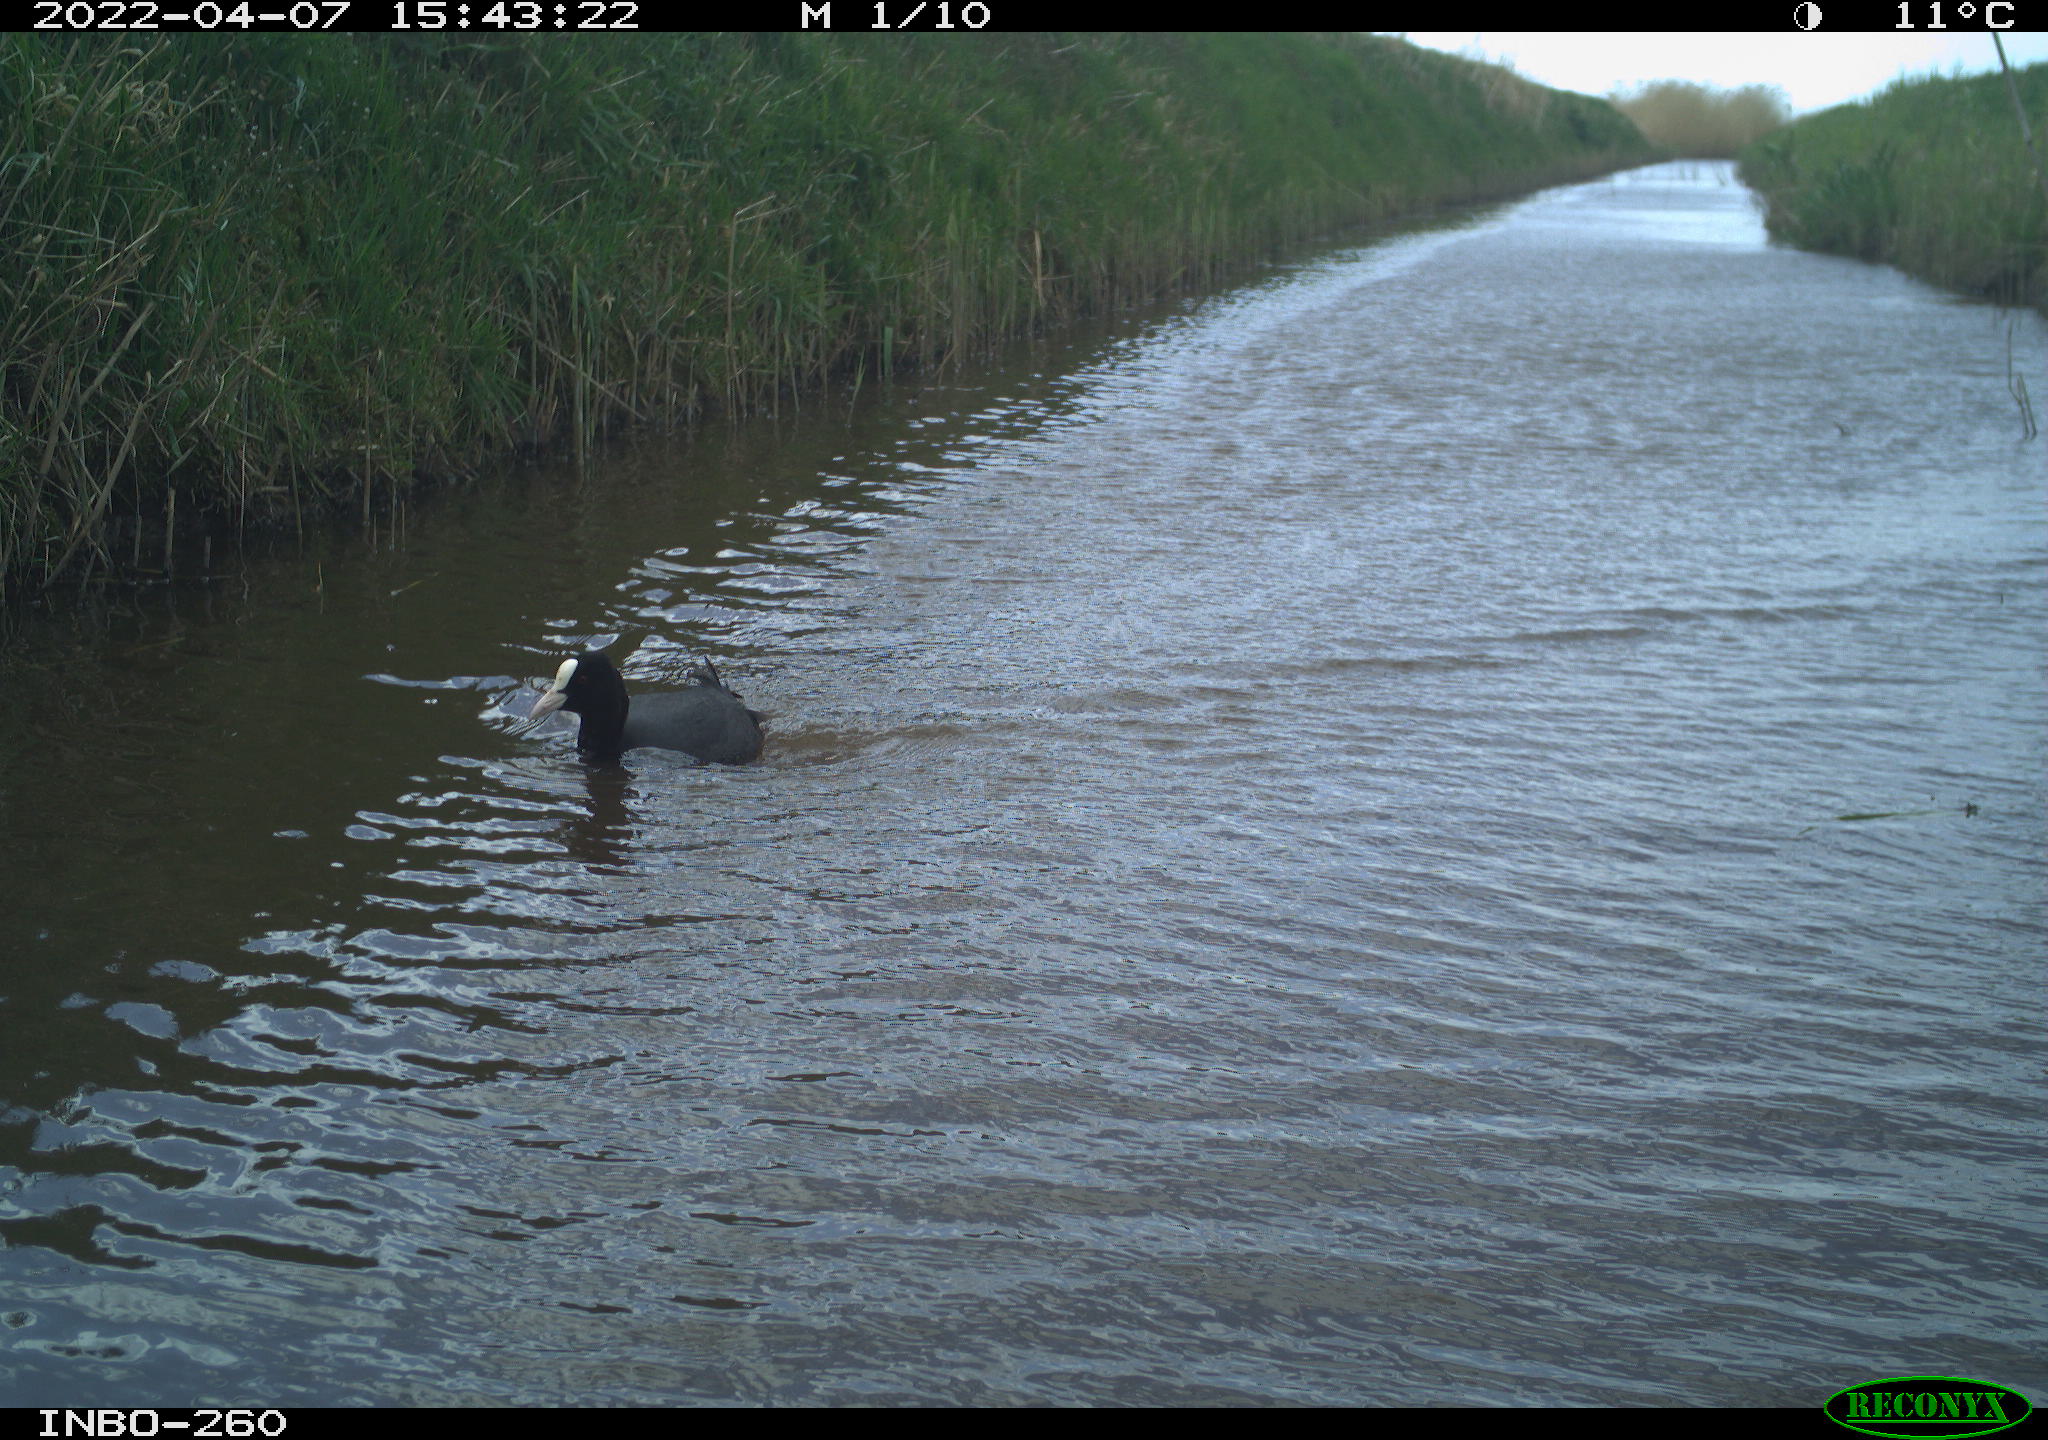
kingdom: Animalia
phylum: Chordata
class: Aves
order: Gruiformes
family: Rallidae
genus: Fulica
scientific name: Fulica atra
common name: Eurasian coot
